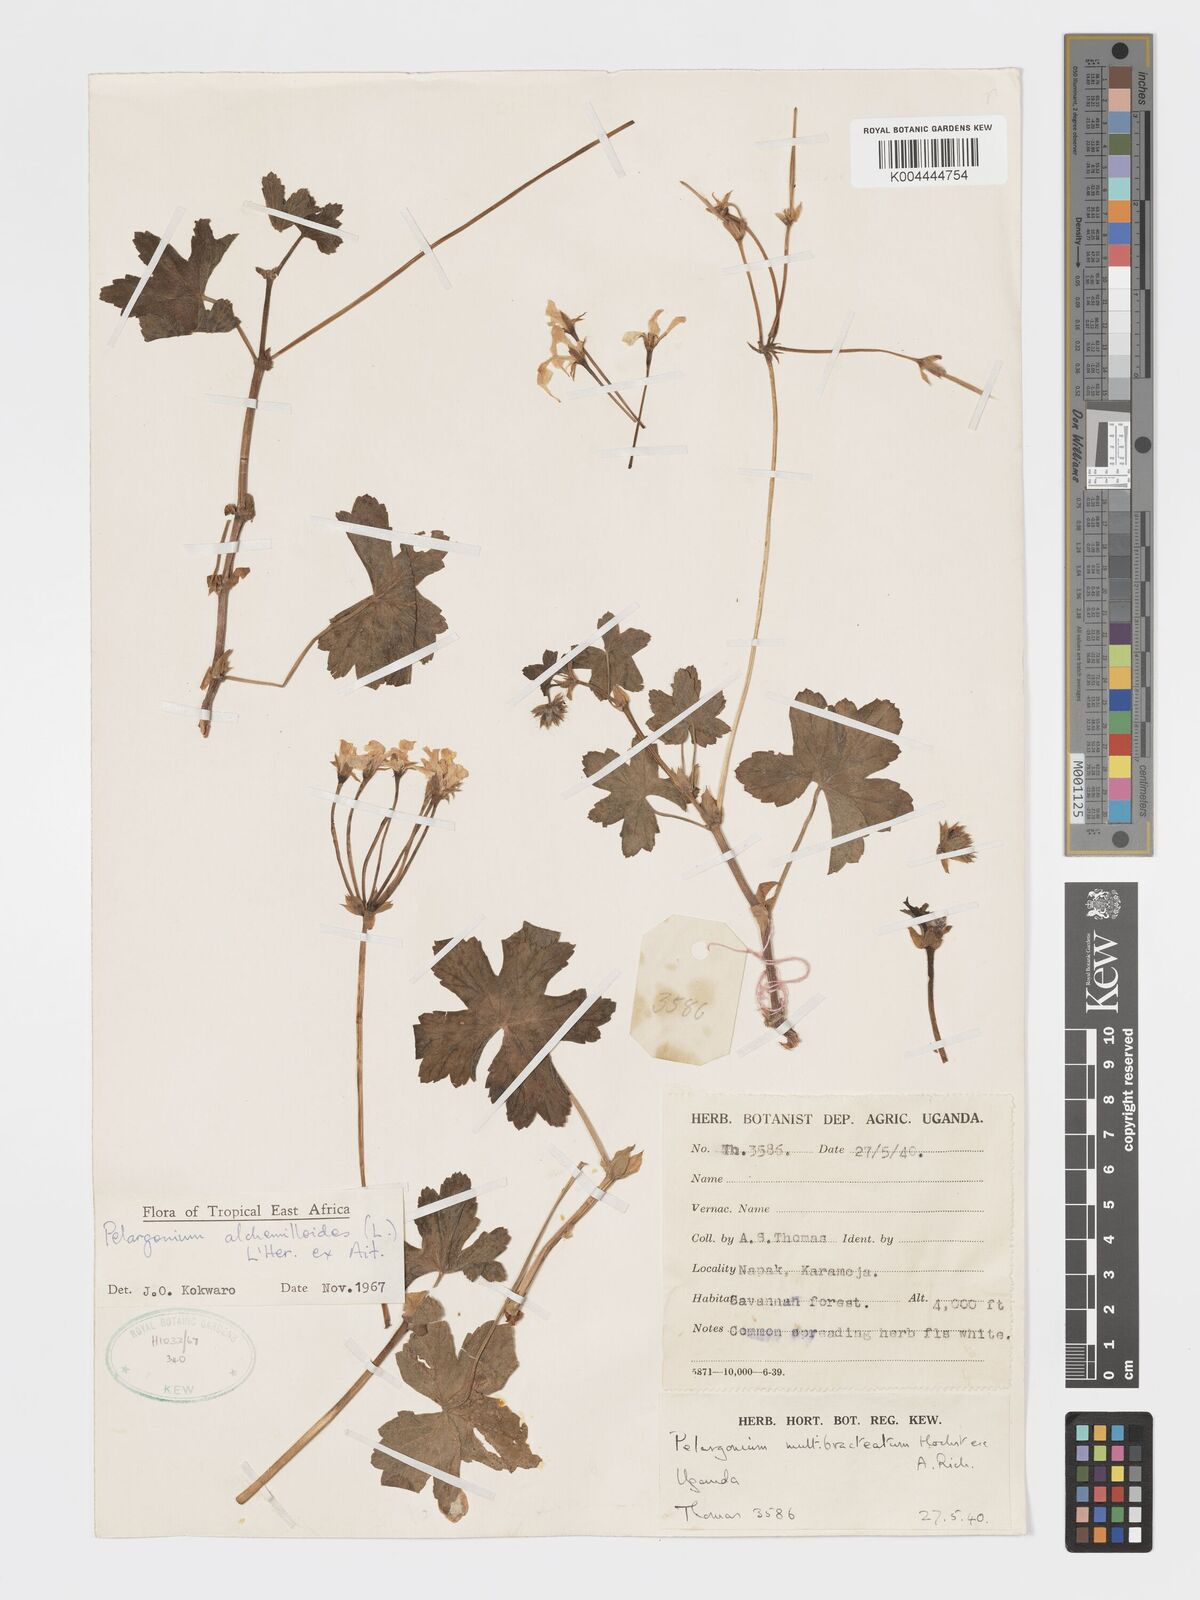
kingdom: Plantae
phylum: Tracheophyta
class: Magnoliopsida
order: Geraniales
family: Geraniaceae
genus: Pelargonium
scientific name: Pelargonium alchemilloides
